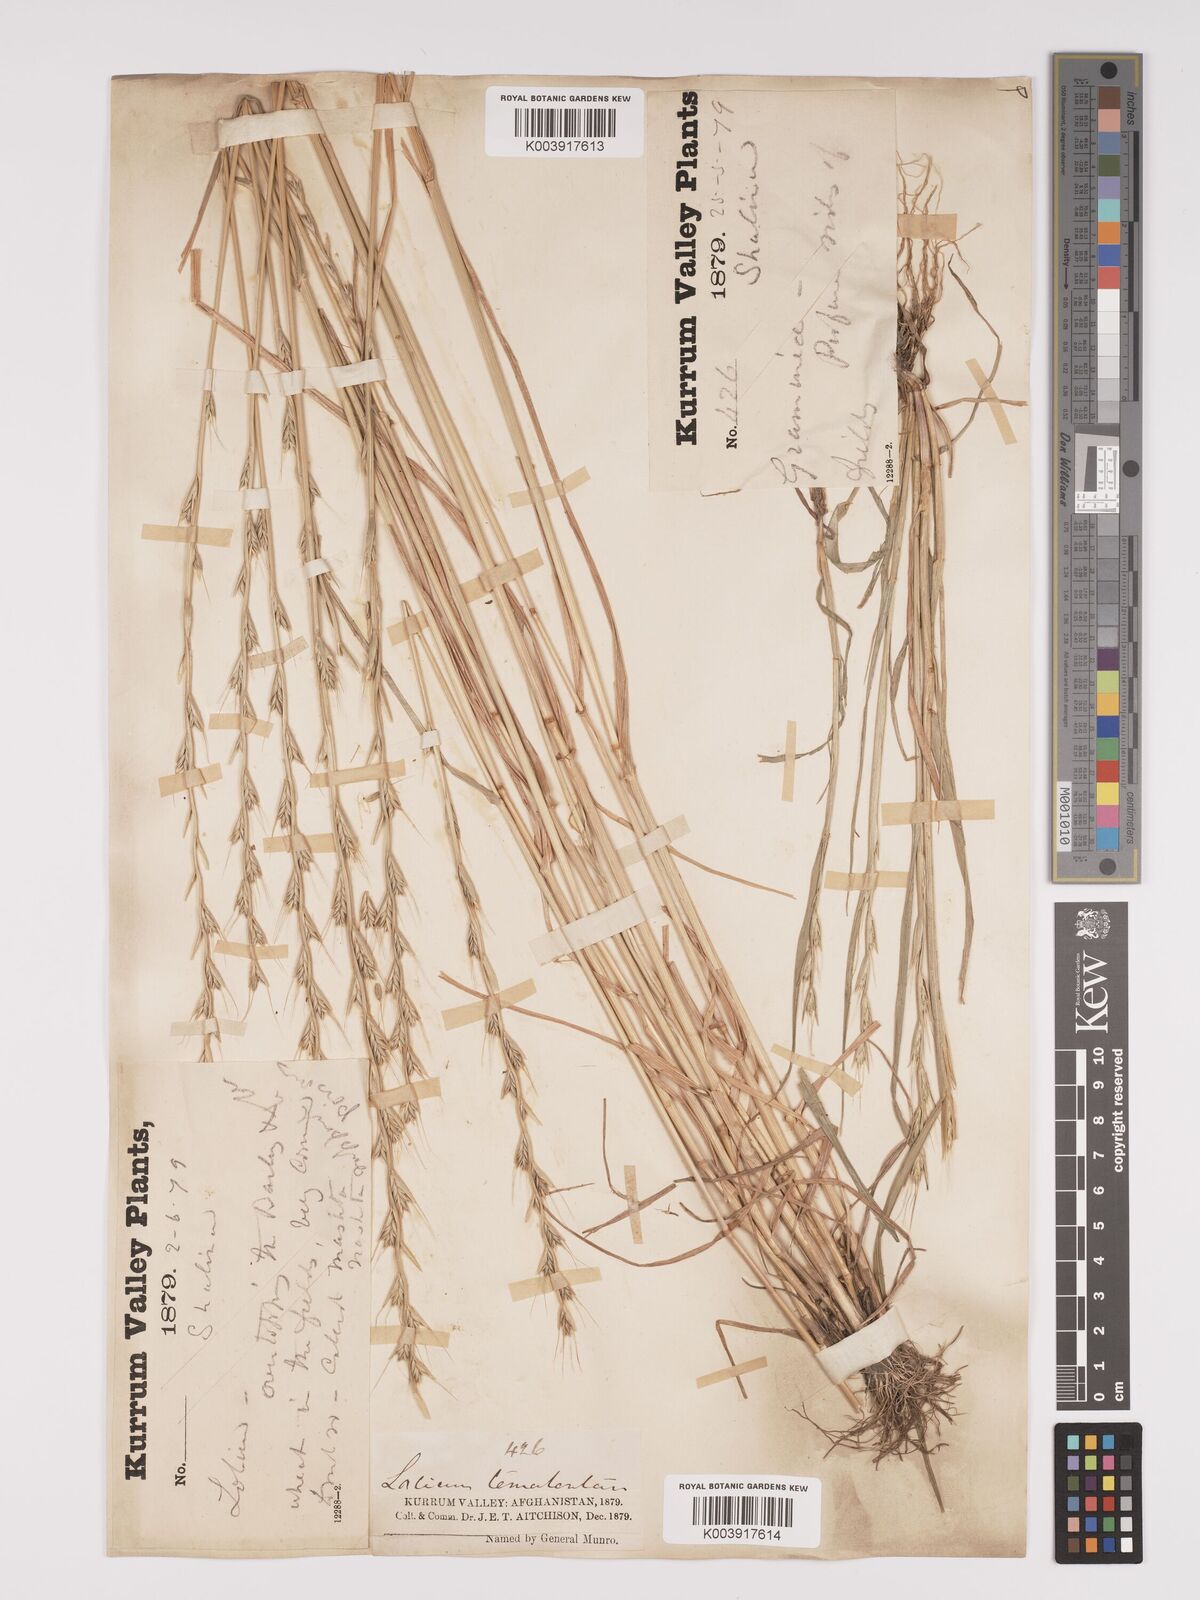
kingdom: Plantae
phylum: Tracheophyta
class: Liliopsida
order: Poales
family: Poaceae
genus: Lolium
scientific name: Lolium temulentum
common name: Darnel
